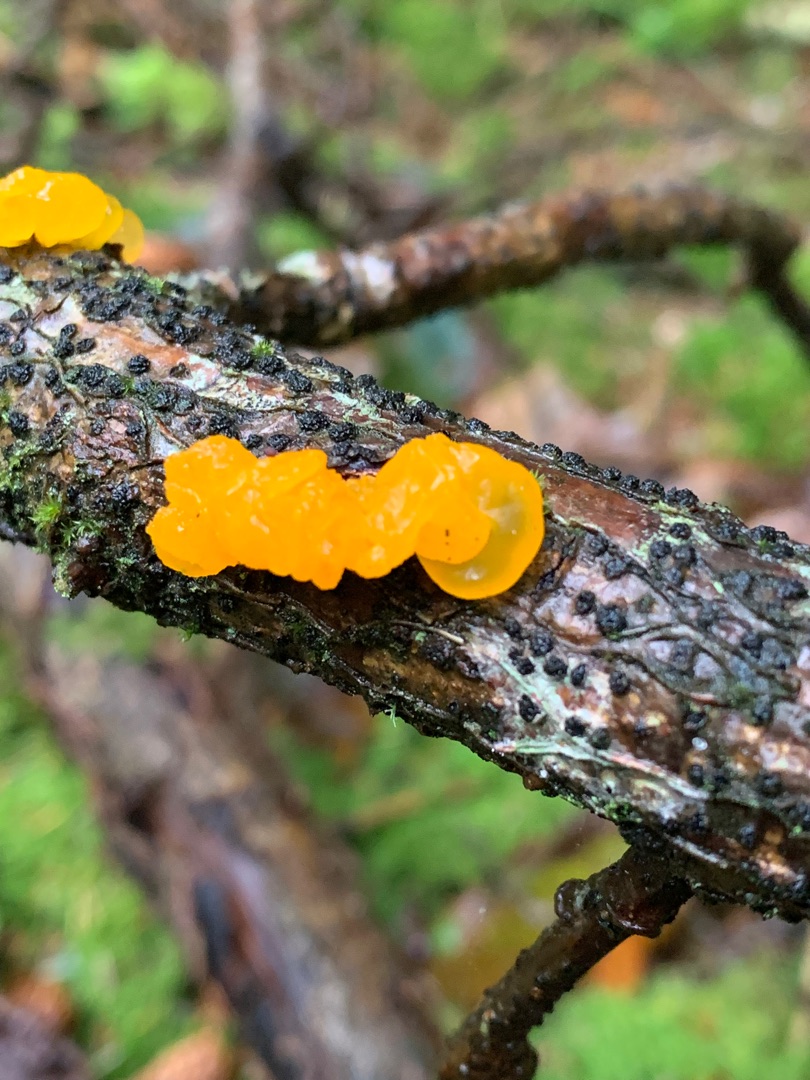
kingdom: Fungi
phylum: Basidiomycota
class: Tremellomycetes
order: Tremellales
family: Tremellaceae
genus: Tremella
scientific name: Tremella mesenterica
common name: Gul bævresvamp
